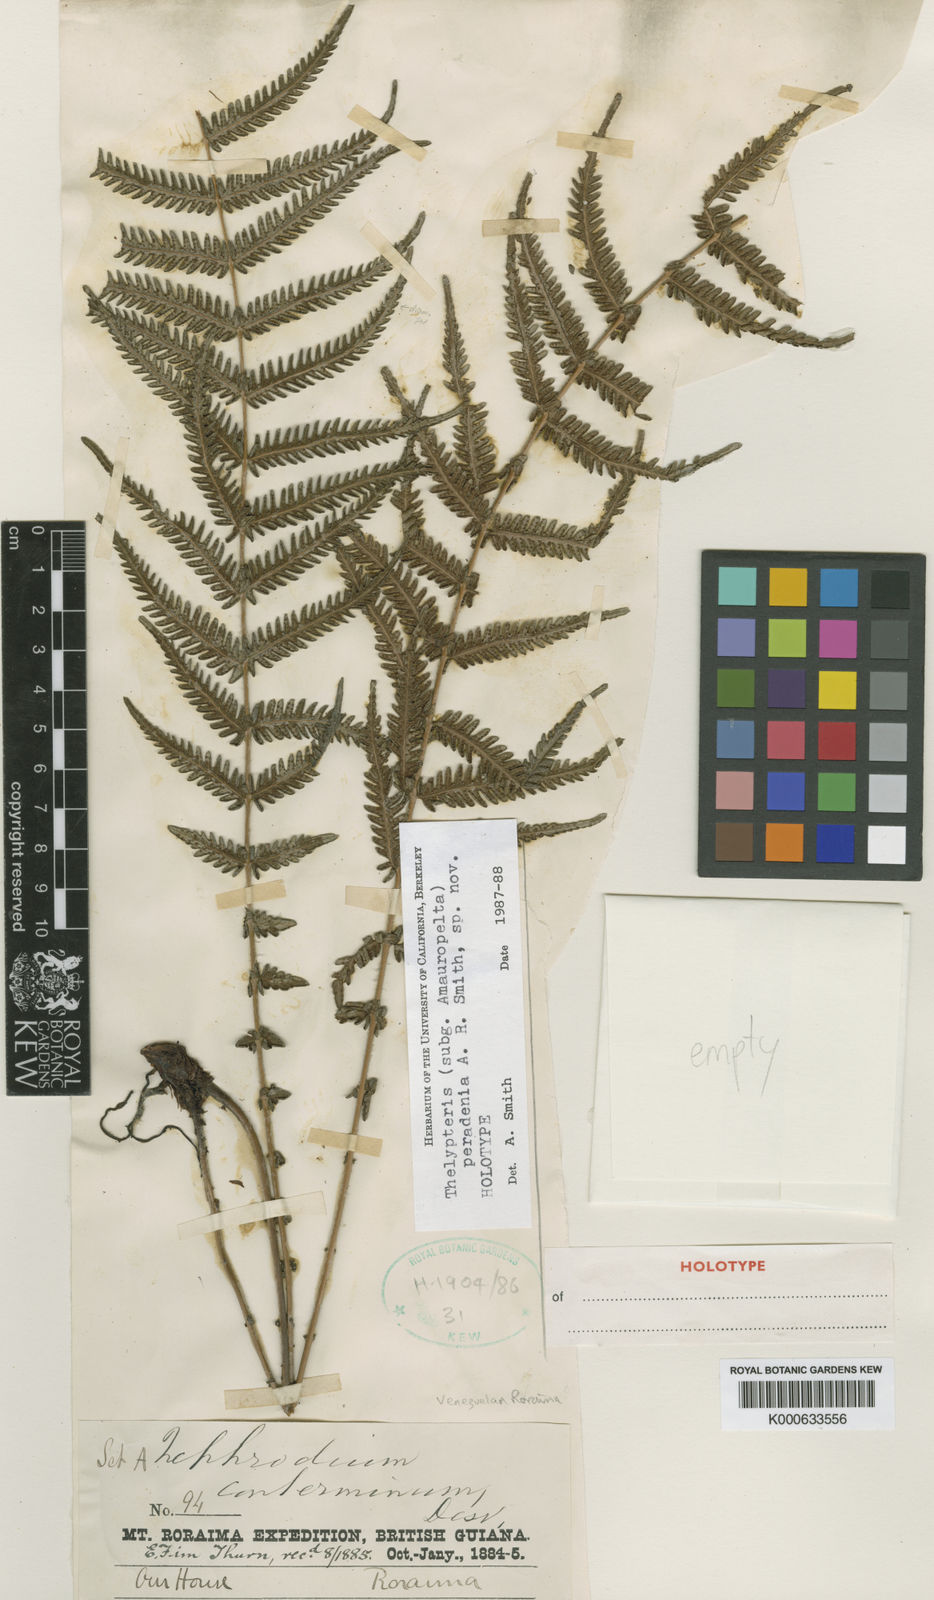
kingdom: Plantae
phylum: Tracheophyta
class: Polypodiopsida
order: Polypodiales
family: Thelypteridaceae
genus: Amauropelta
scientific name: Amauropelta peradenia
